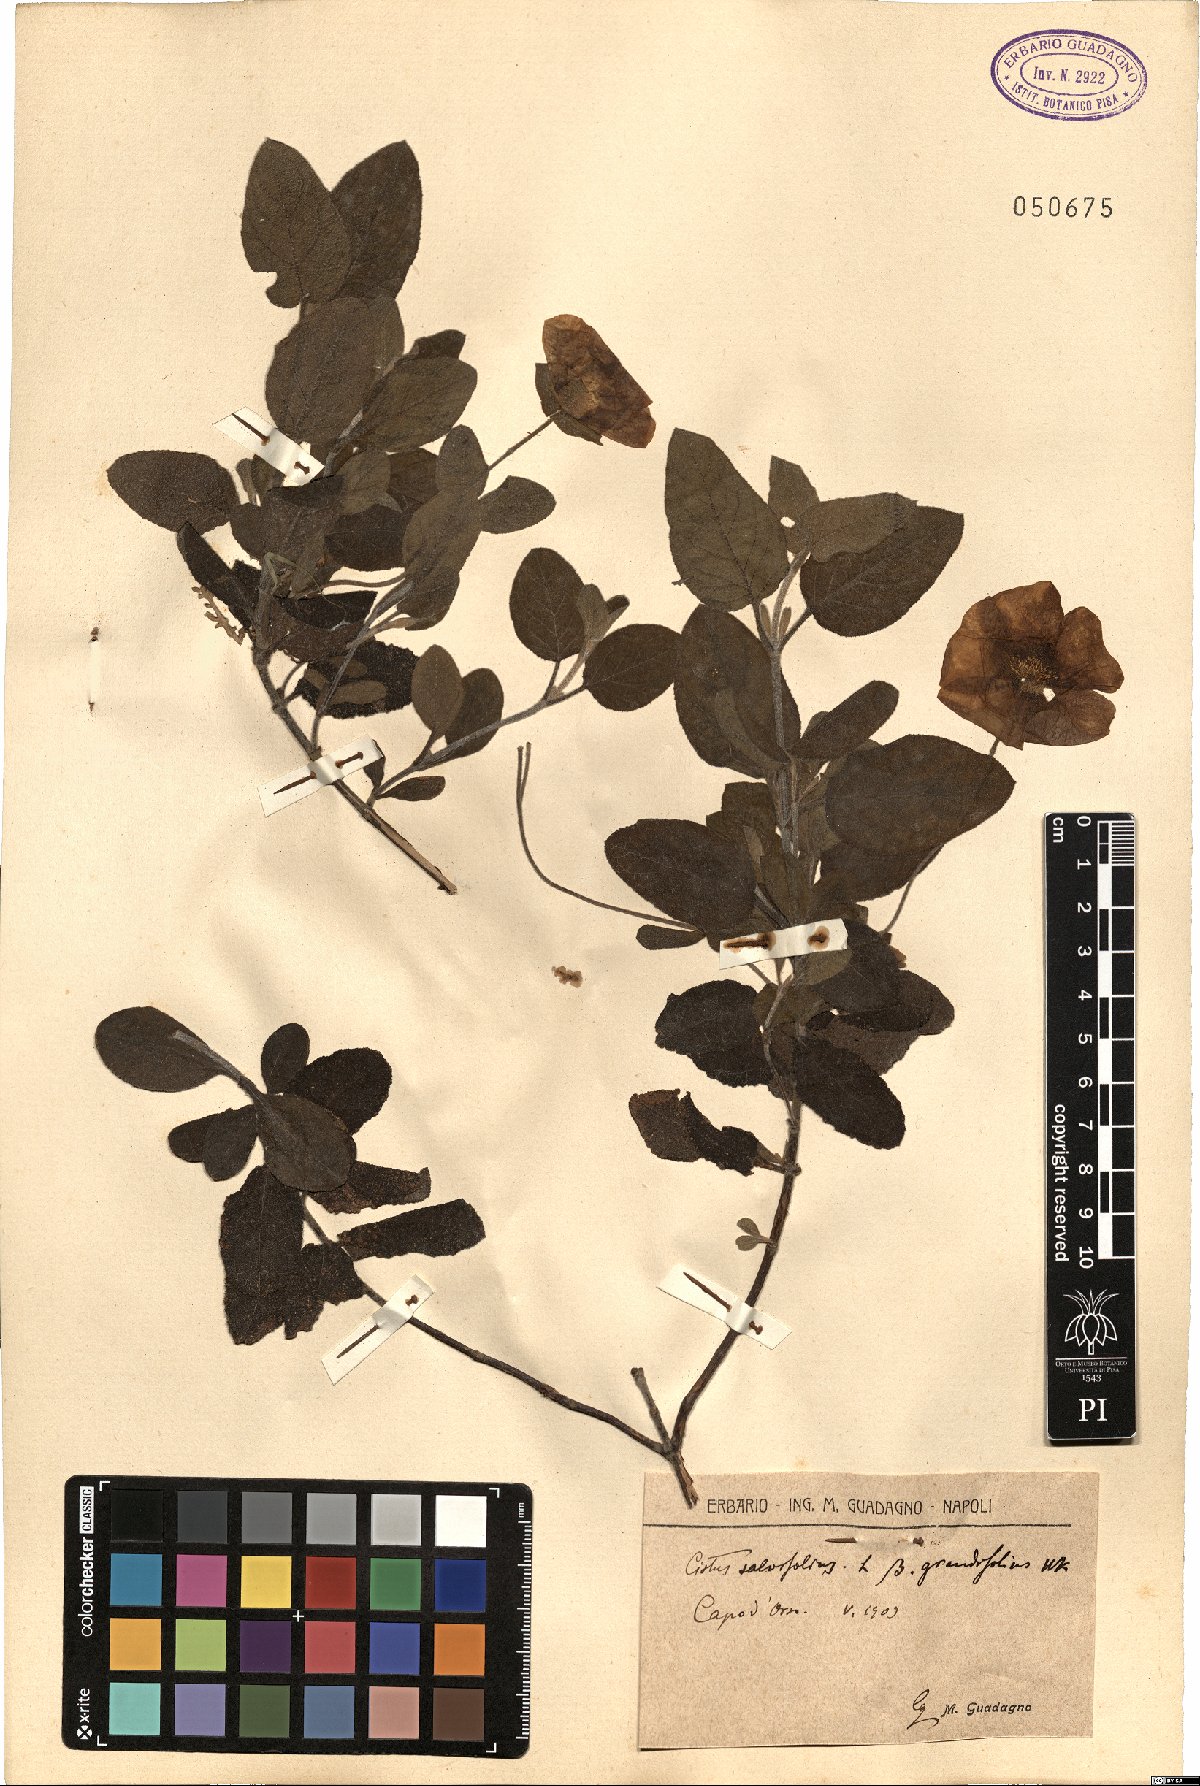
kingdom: Plantae
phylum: Tracheophyta
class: Magnoliopsida
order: Malvales
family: Cistaceae
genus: Cistus
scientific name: Cistus salviifolius
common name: Salvia cistus
